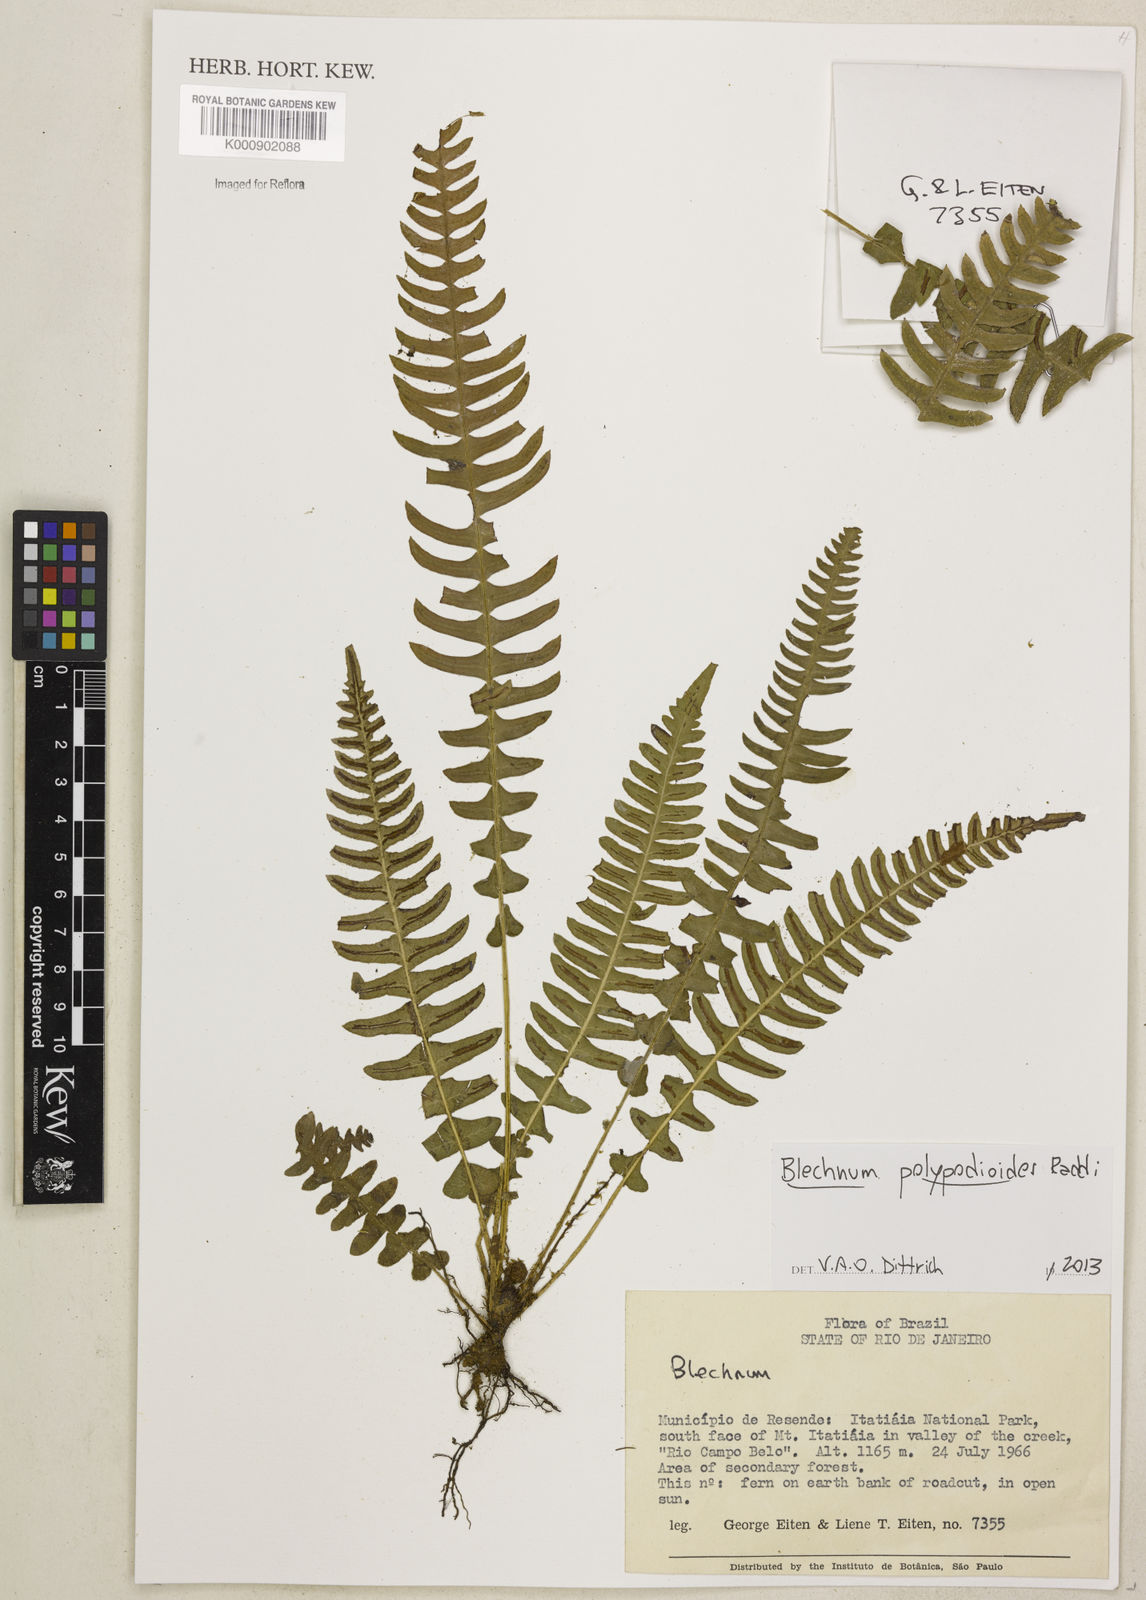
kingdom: Plantae
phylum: Tracheophyta
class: Polypodiopsida
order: Polypodiales
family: Blechnaceae
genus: Blechnum
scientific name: Blechnum polypodioides
